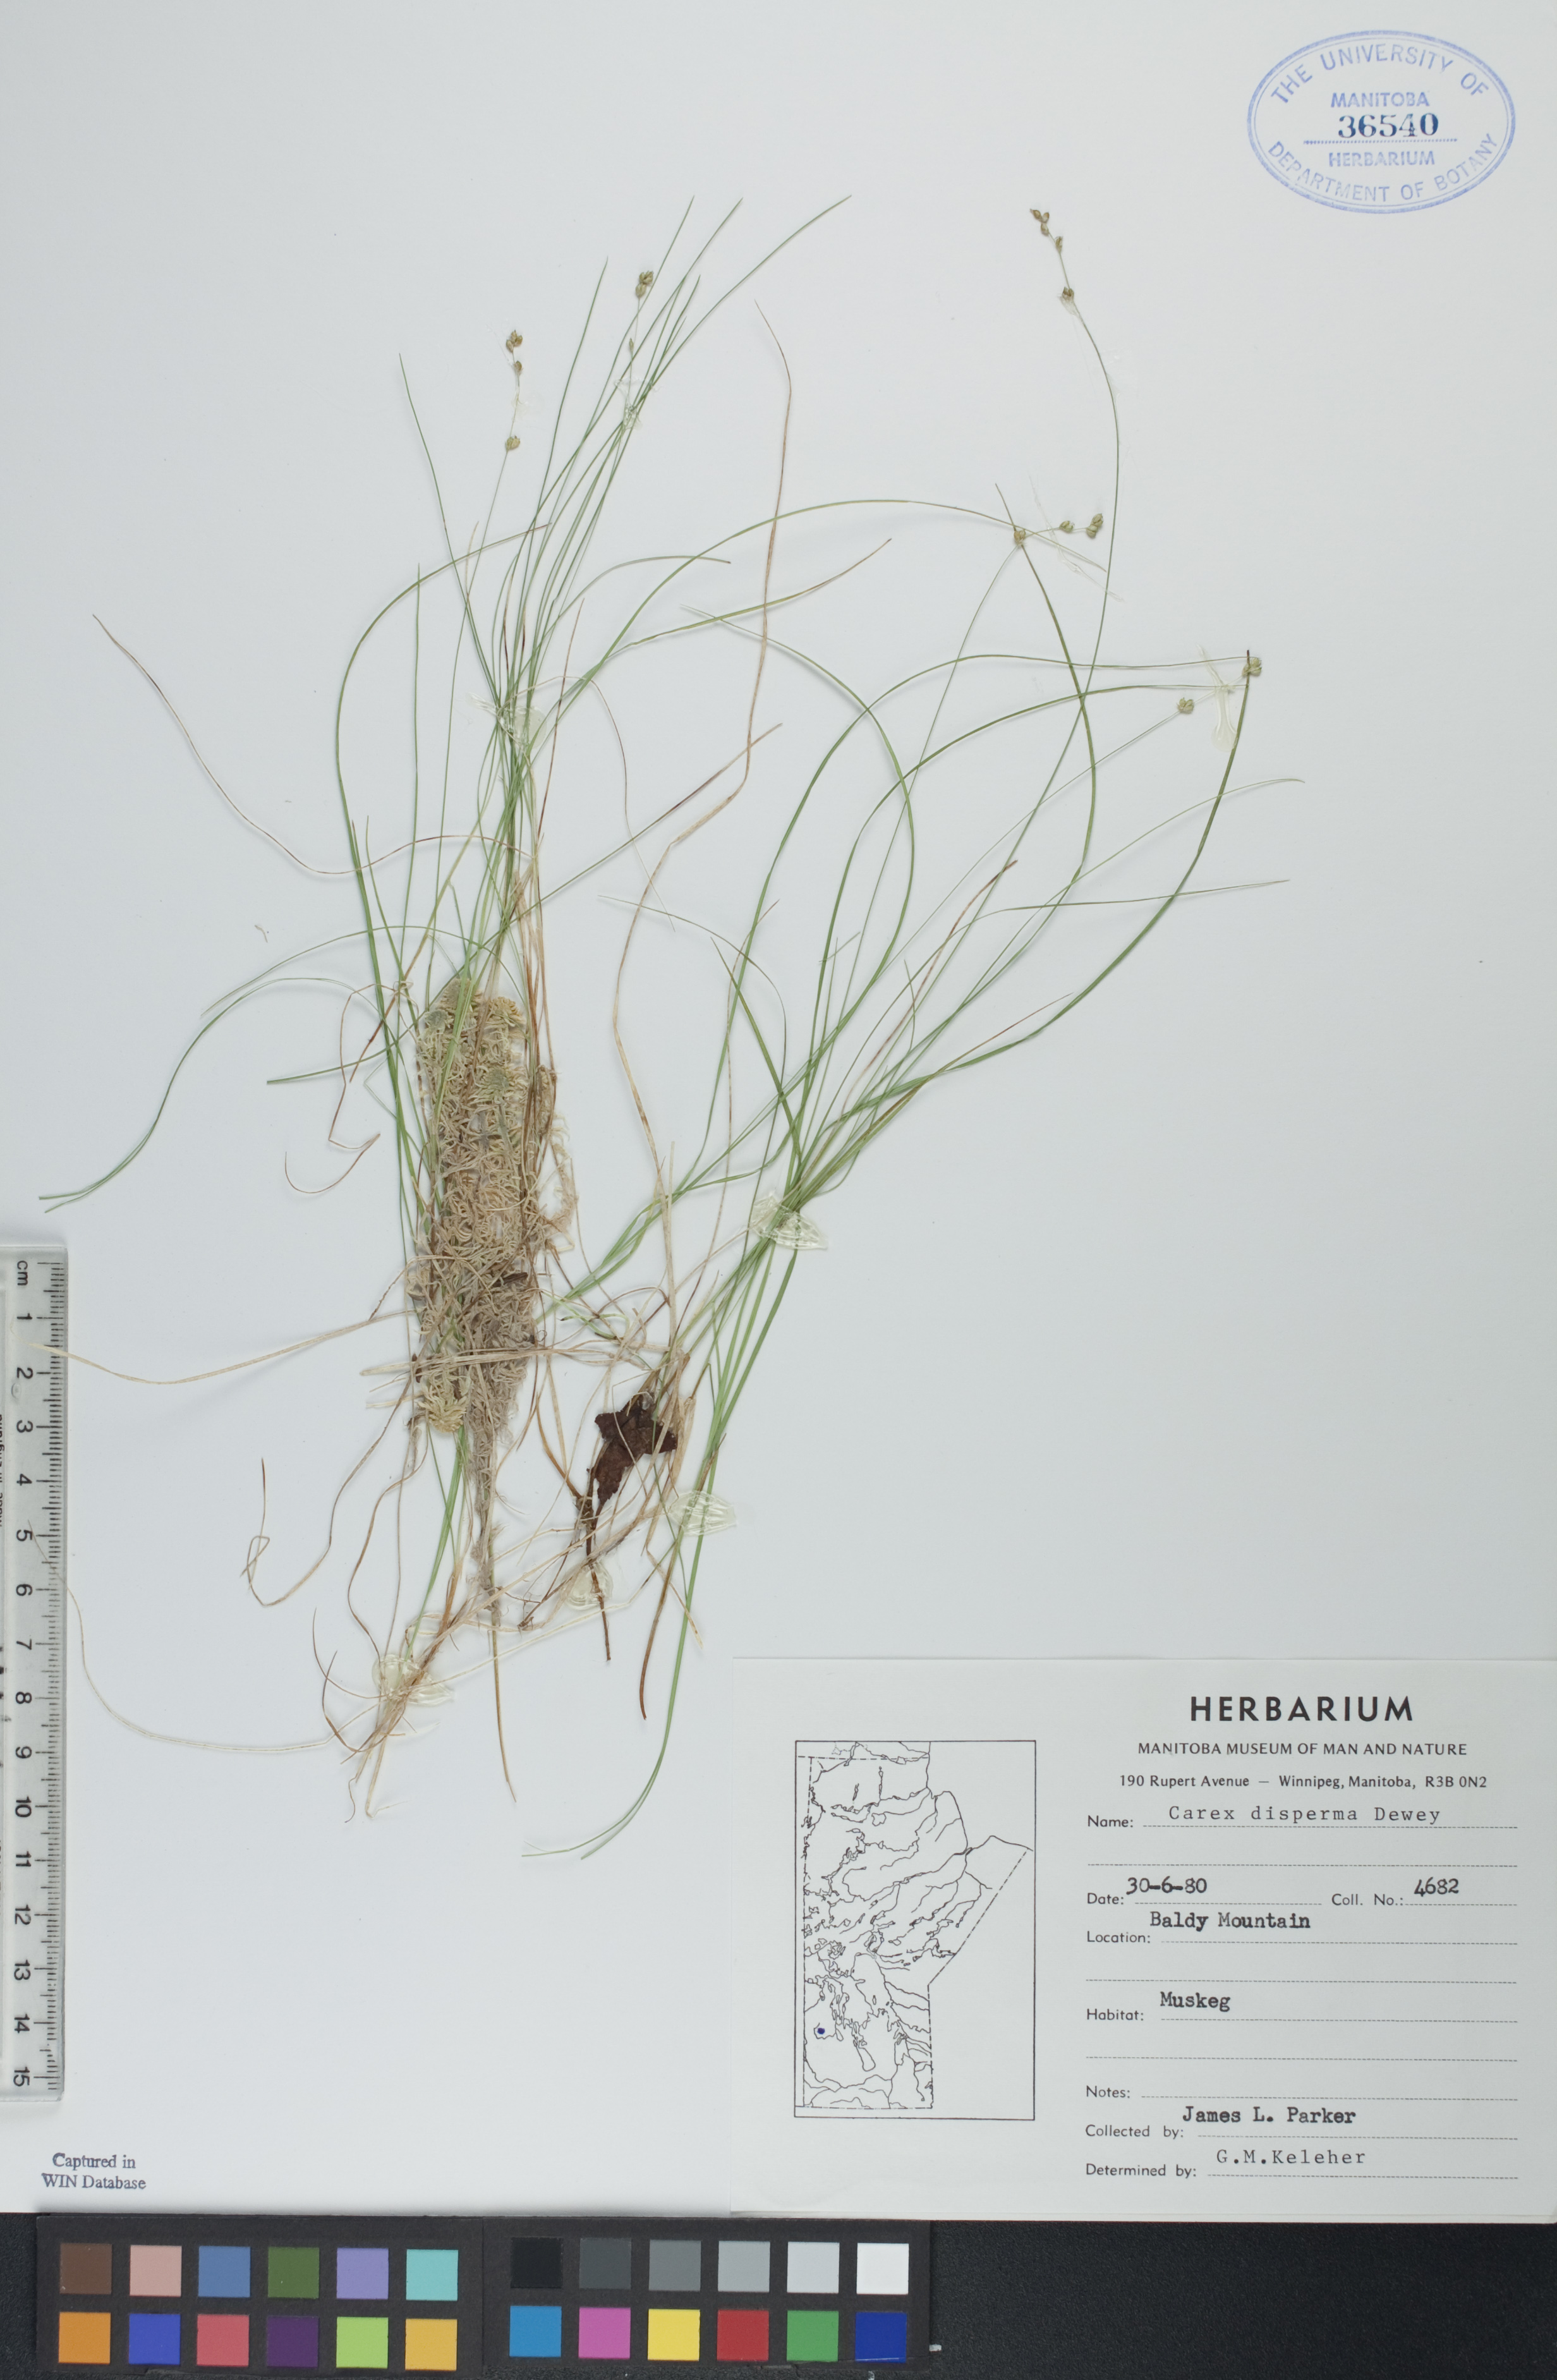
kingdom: Plantae
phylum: Tracheophyta
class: Liliopsida
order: Poales
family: Cyperaceae
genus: Carex
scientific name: Carex disperma
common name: Short-leaved sedge
